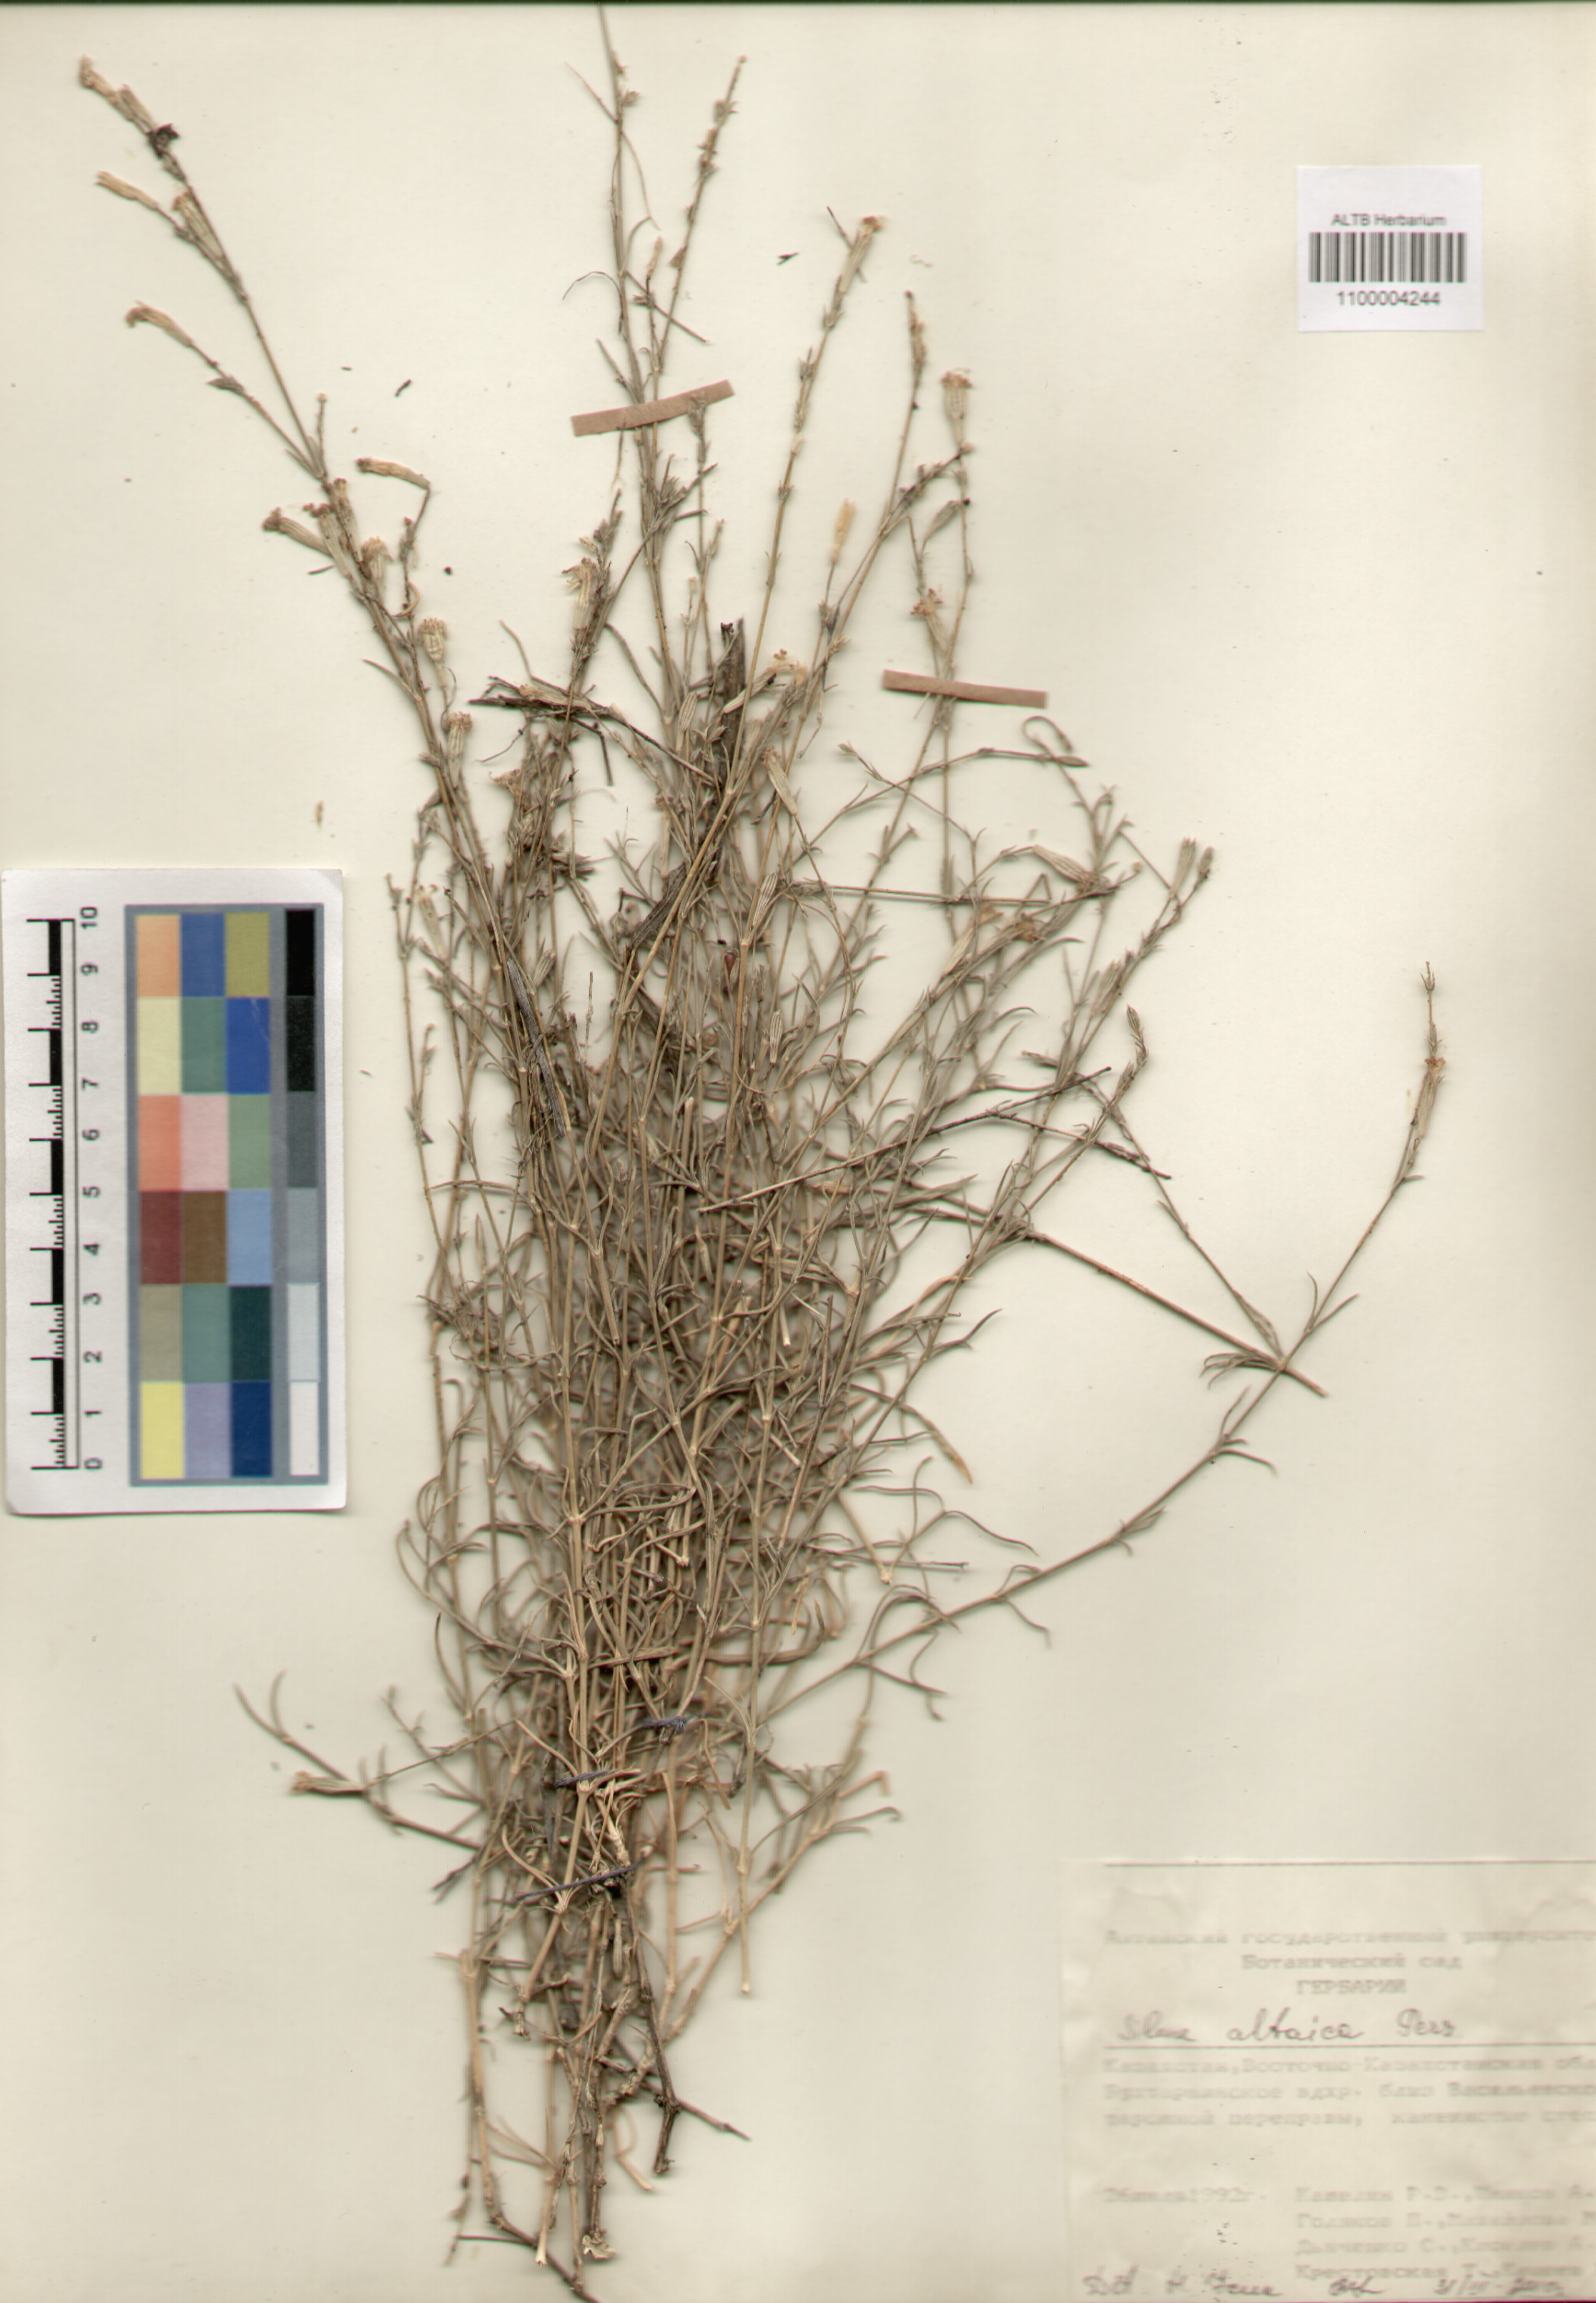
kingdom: Plantae
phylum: Tracheophyta
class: Magnoliopsida
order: Caryophyllales
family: Caryophyllaceae
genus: Silene
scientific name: Silene altaica
